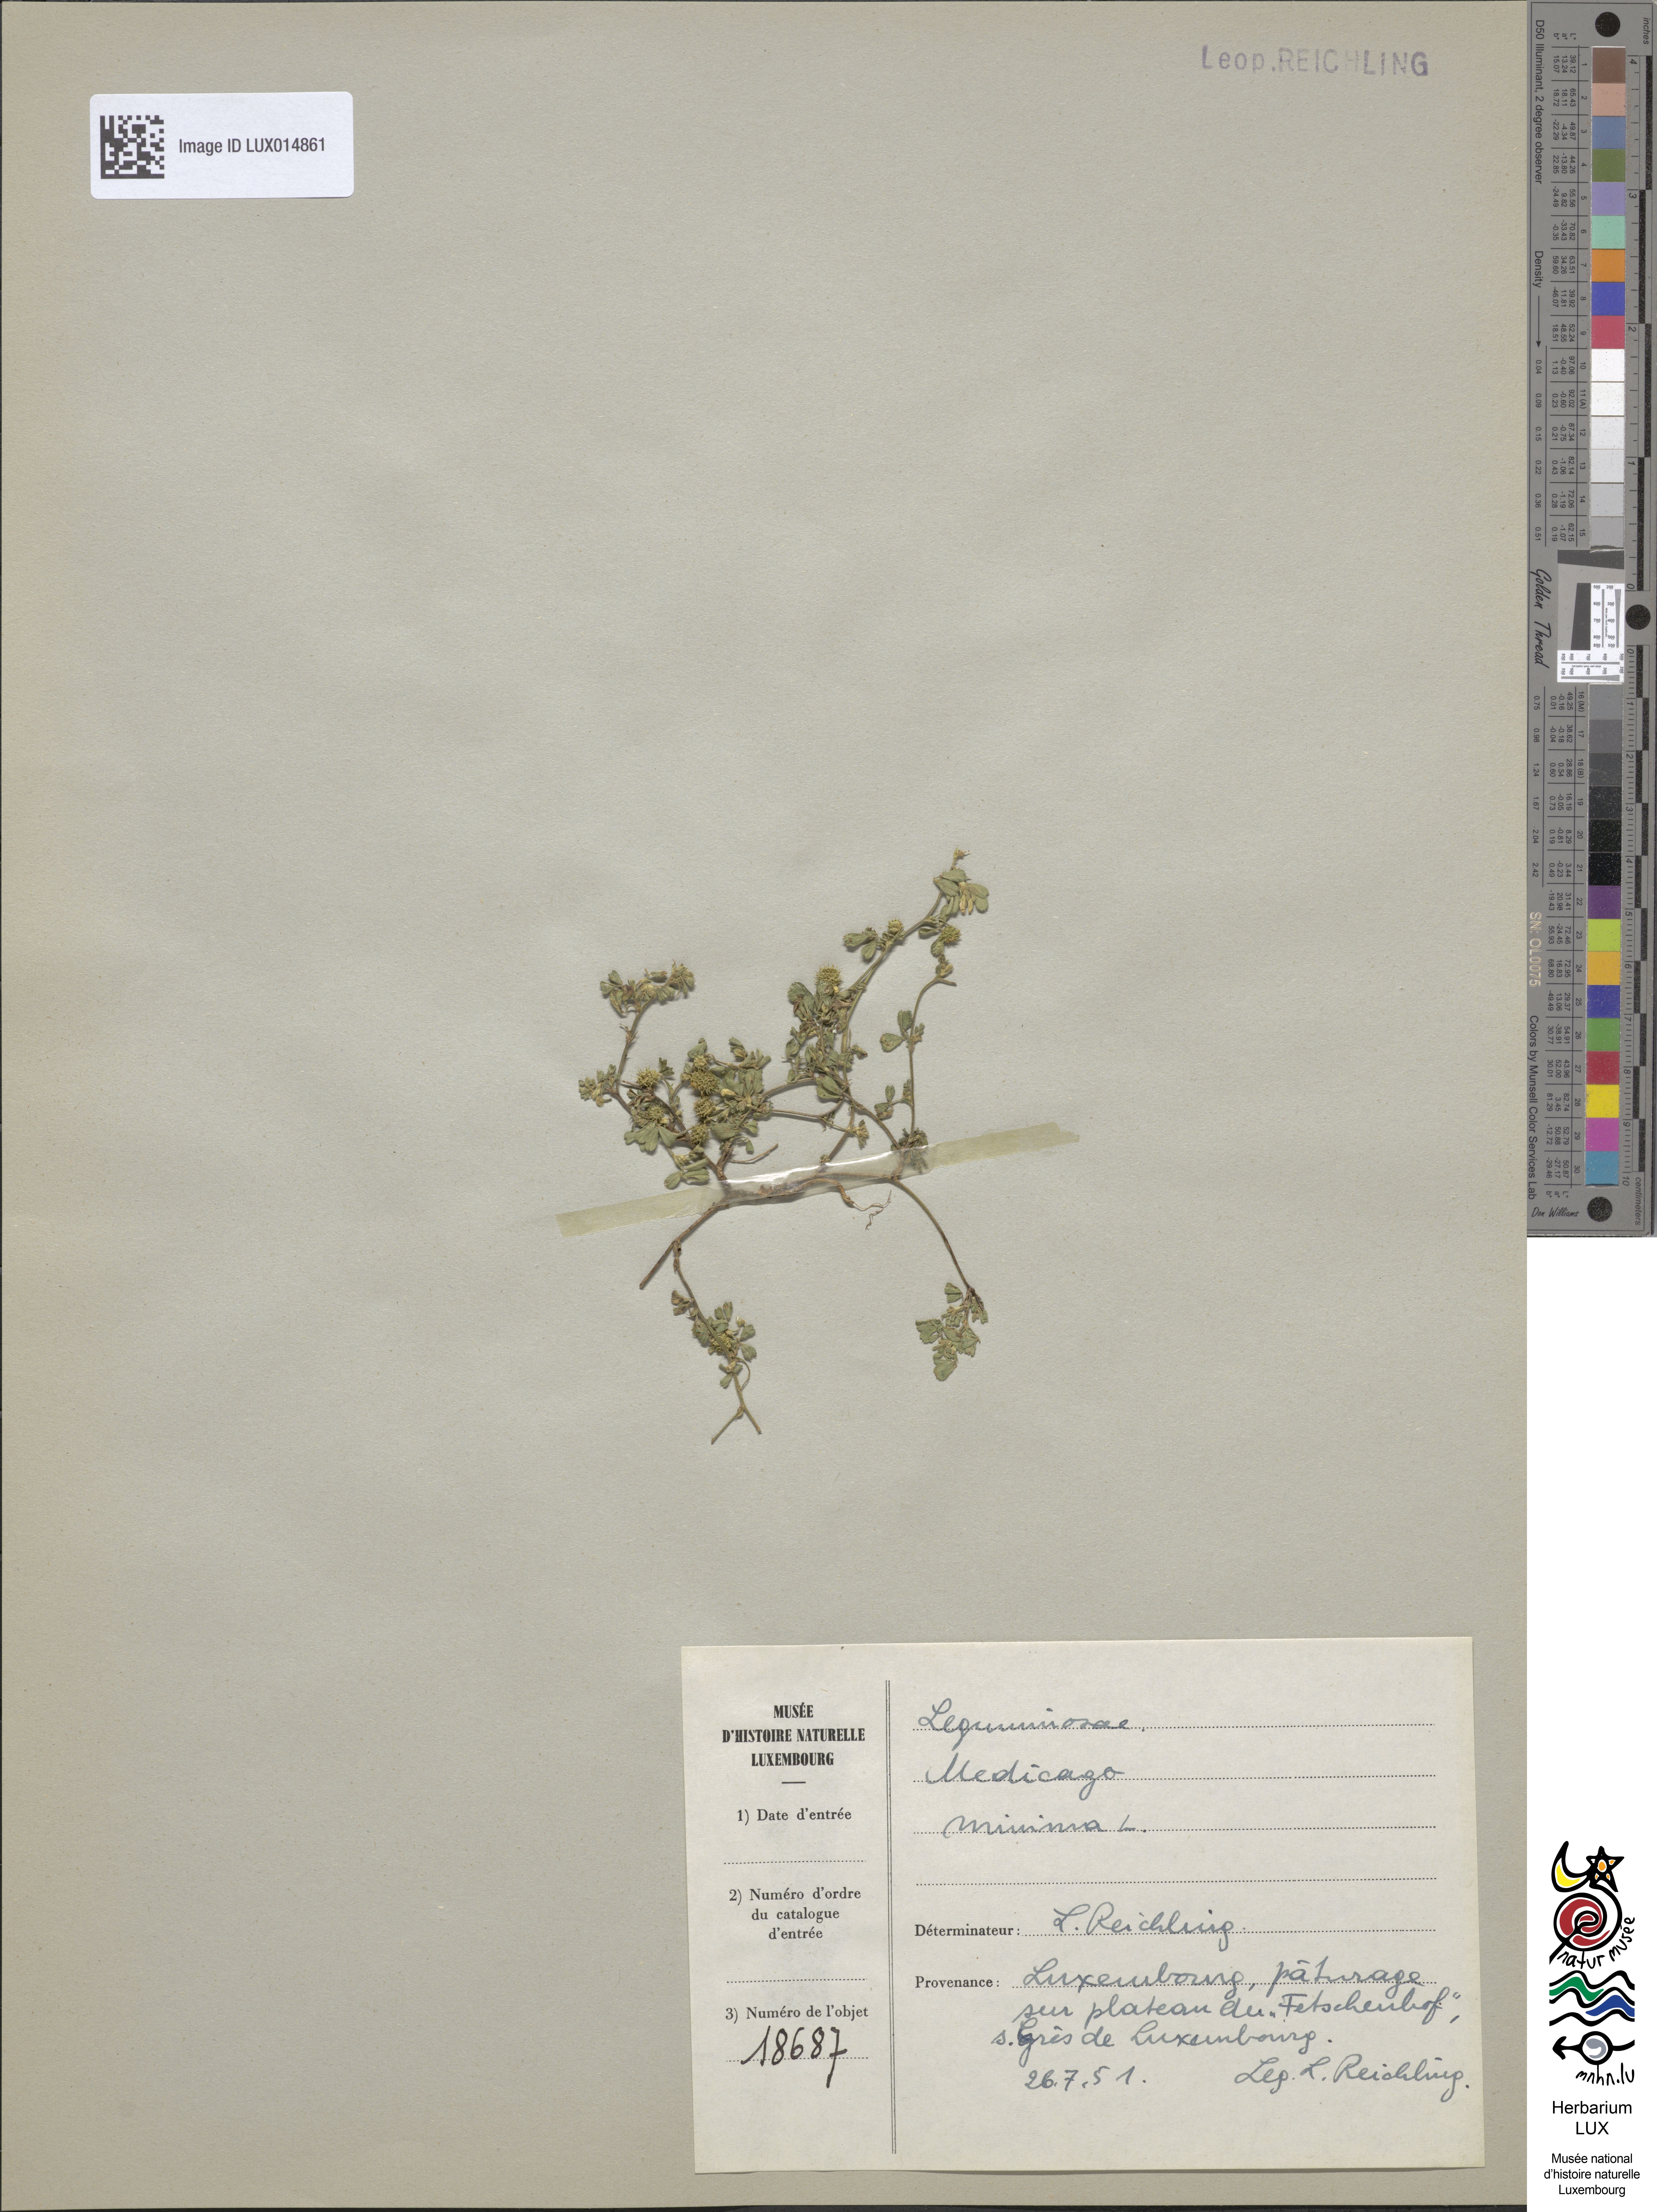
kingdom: Plantae
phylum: Tracheophyta
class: Magnoliopsida
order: Fabales
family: Fabaceae
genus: Medicago
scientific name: Medicago minima
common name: Little bur-clover
